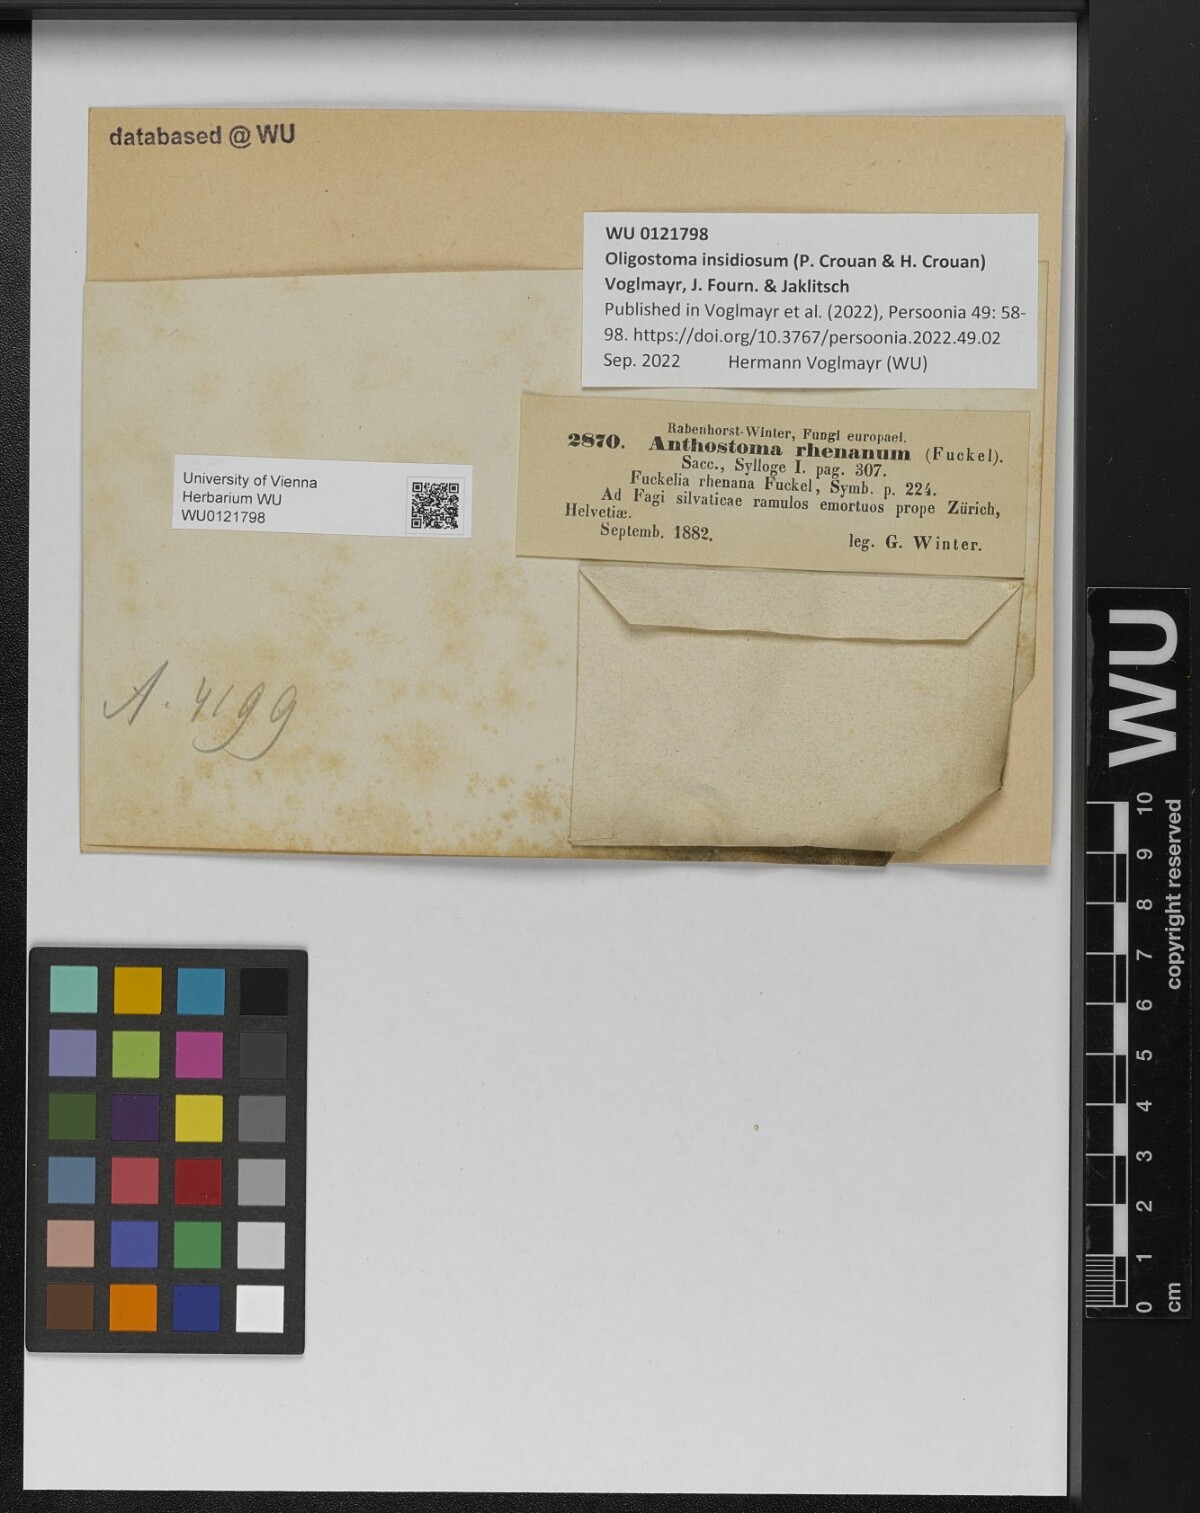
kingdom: Fungi
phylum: Ascomycota
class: Sordariomycetes
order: Xylariales
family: Diatrypaceae
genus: Anthostoma
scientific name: Anthostoma
